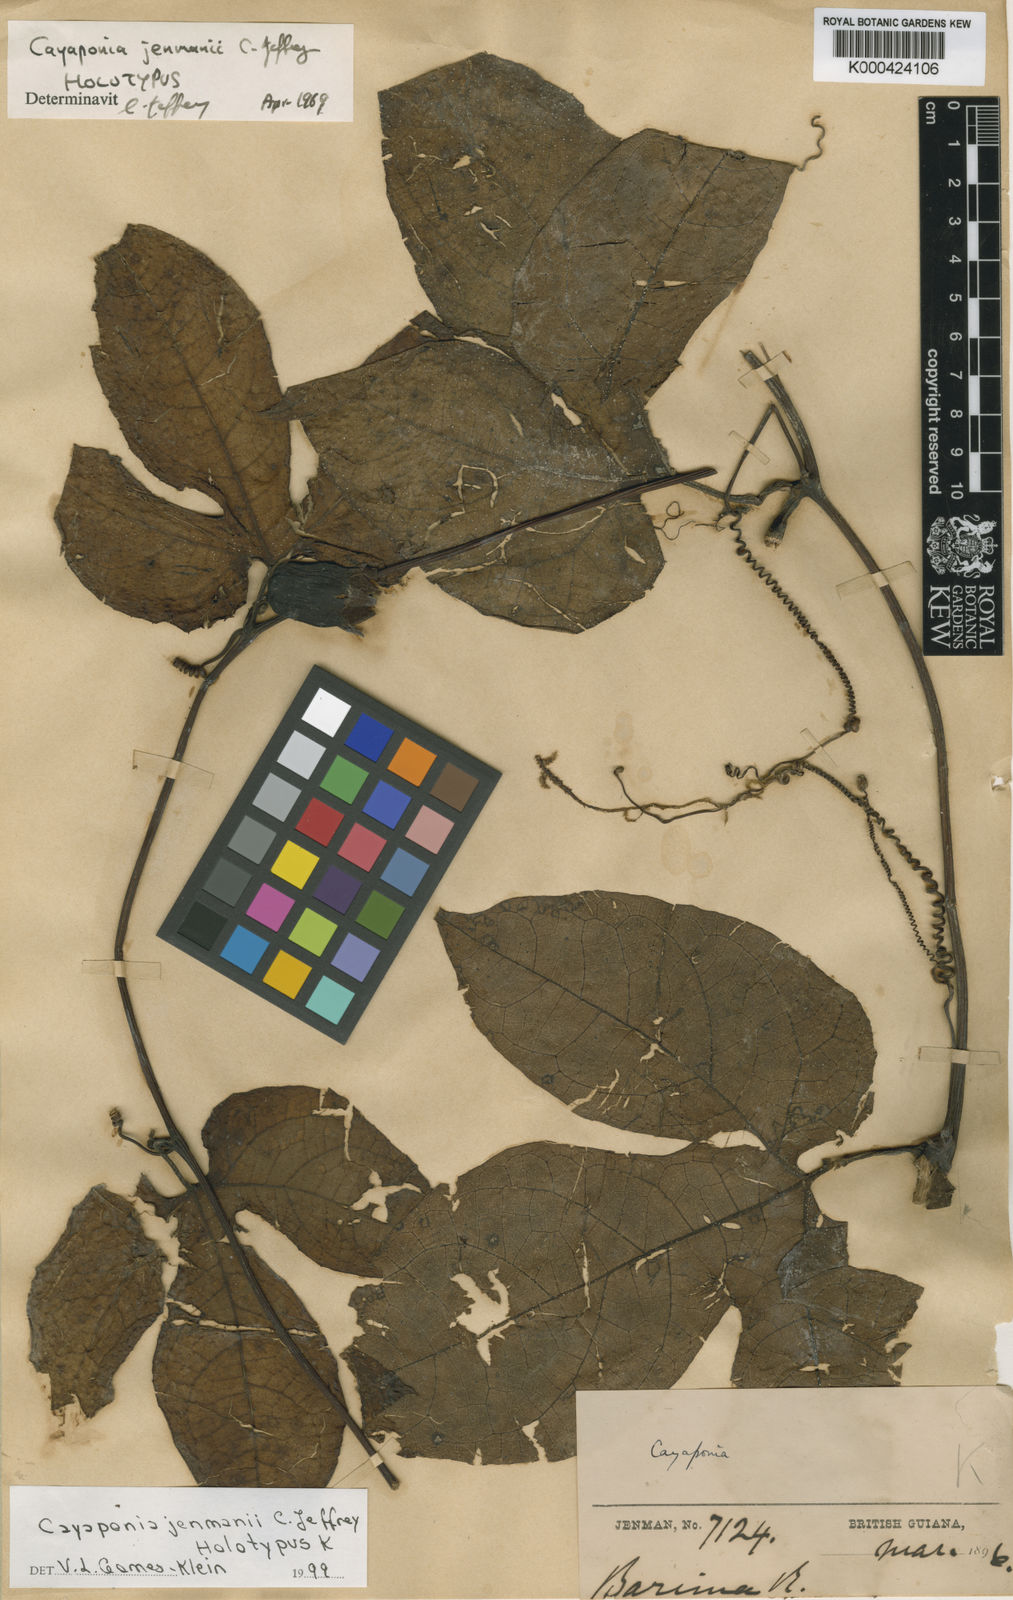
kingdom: Plantae
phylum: Tracheophyta
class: Magnoliopsida
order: Cucurbitales
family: Cucurbitaceae
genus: Cayaponia
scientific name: Cayaponia jenmanii
